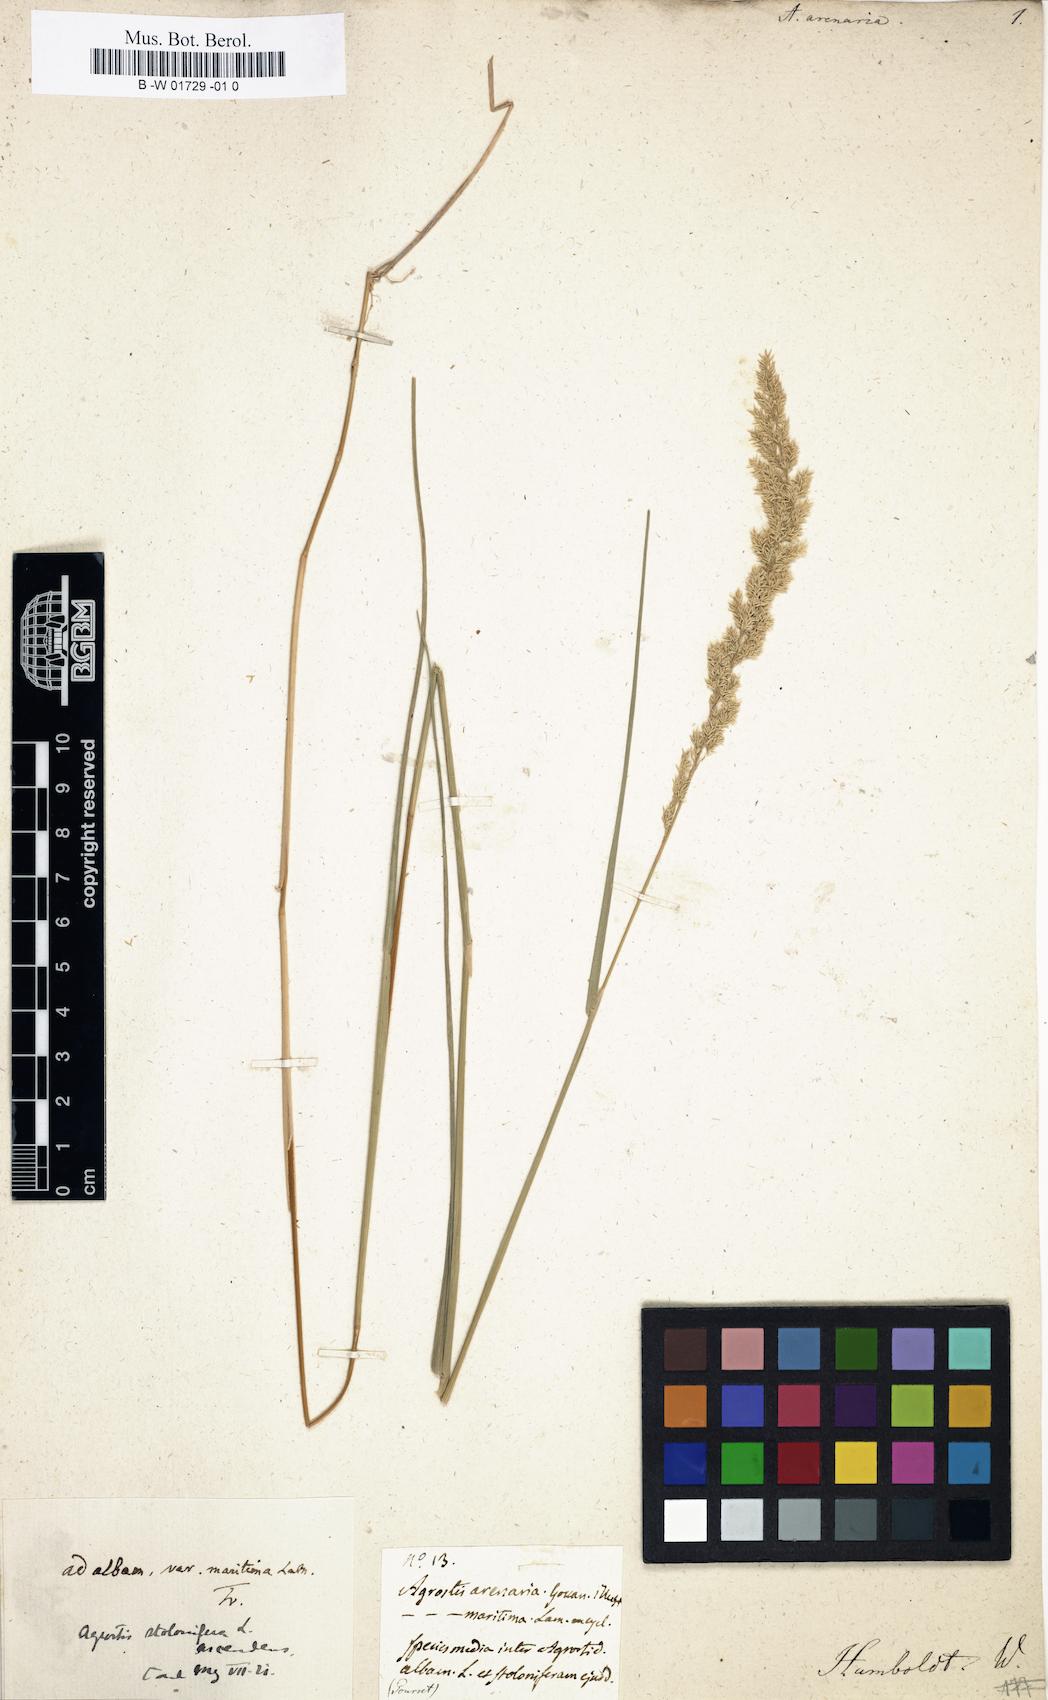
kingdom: Plantae
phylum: Tracheophyta
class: Liliopsida
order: Poales
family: Poaceae
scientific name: Poaceae
